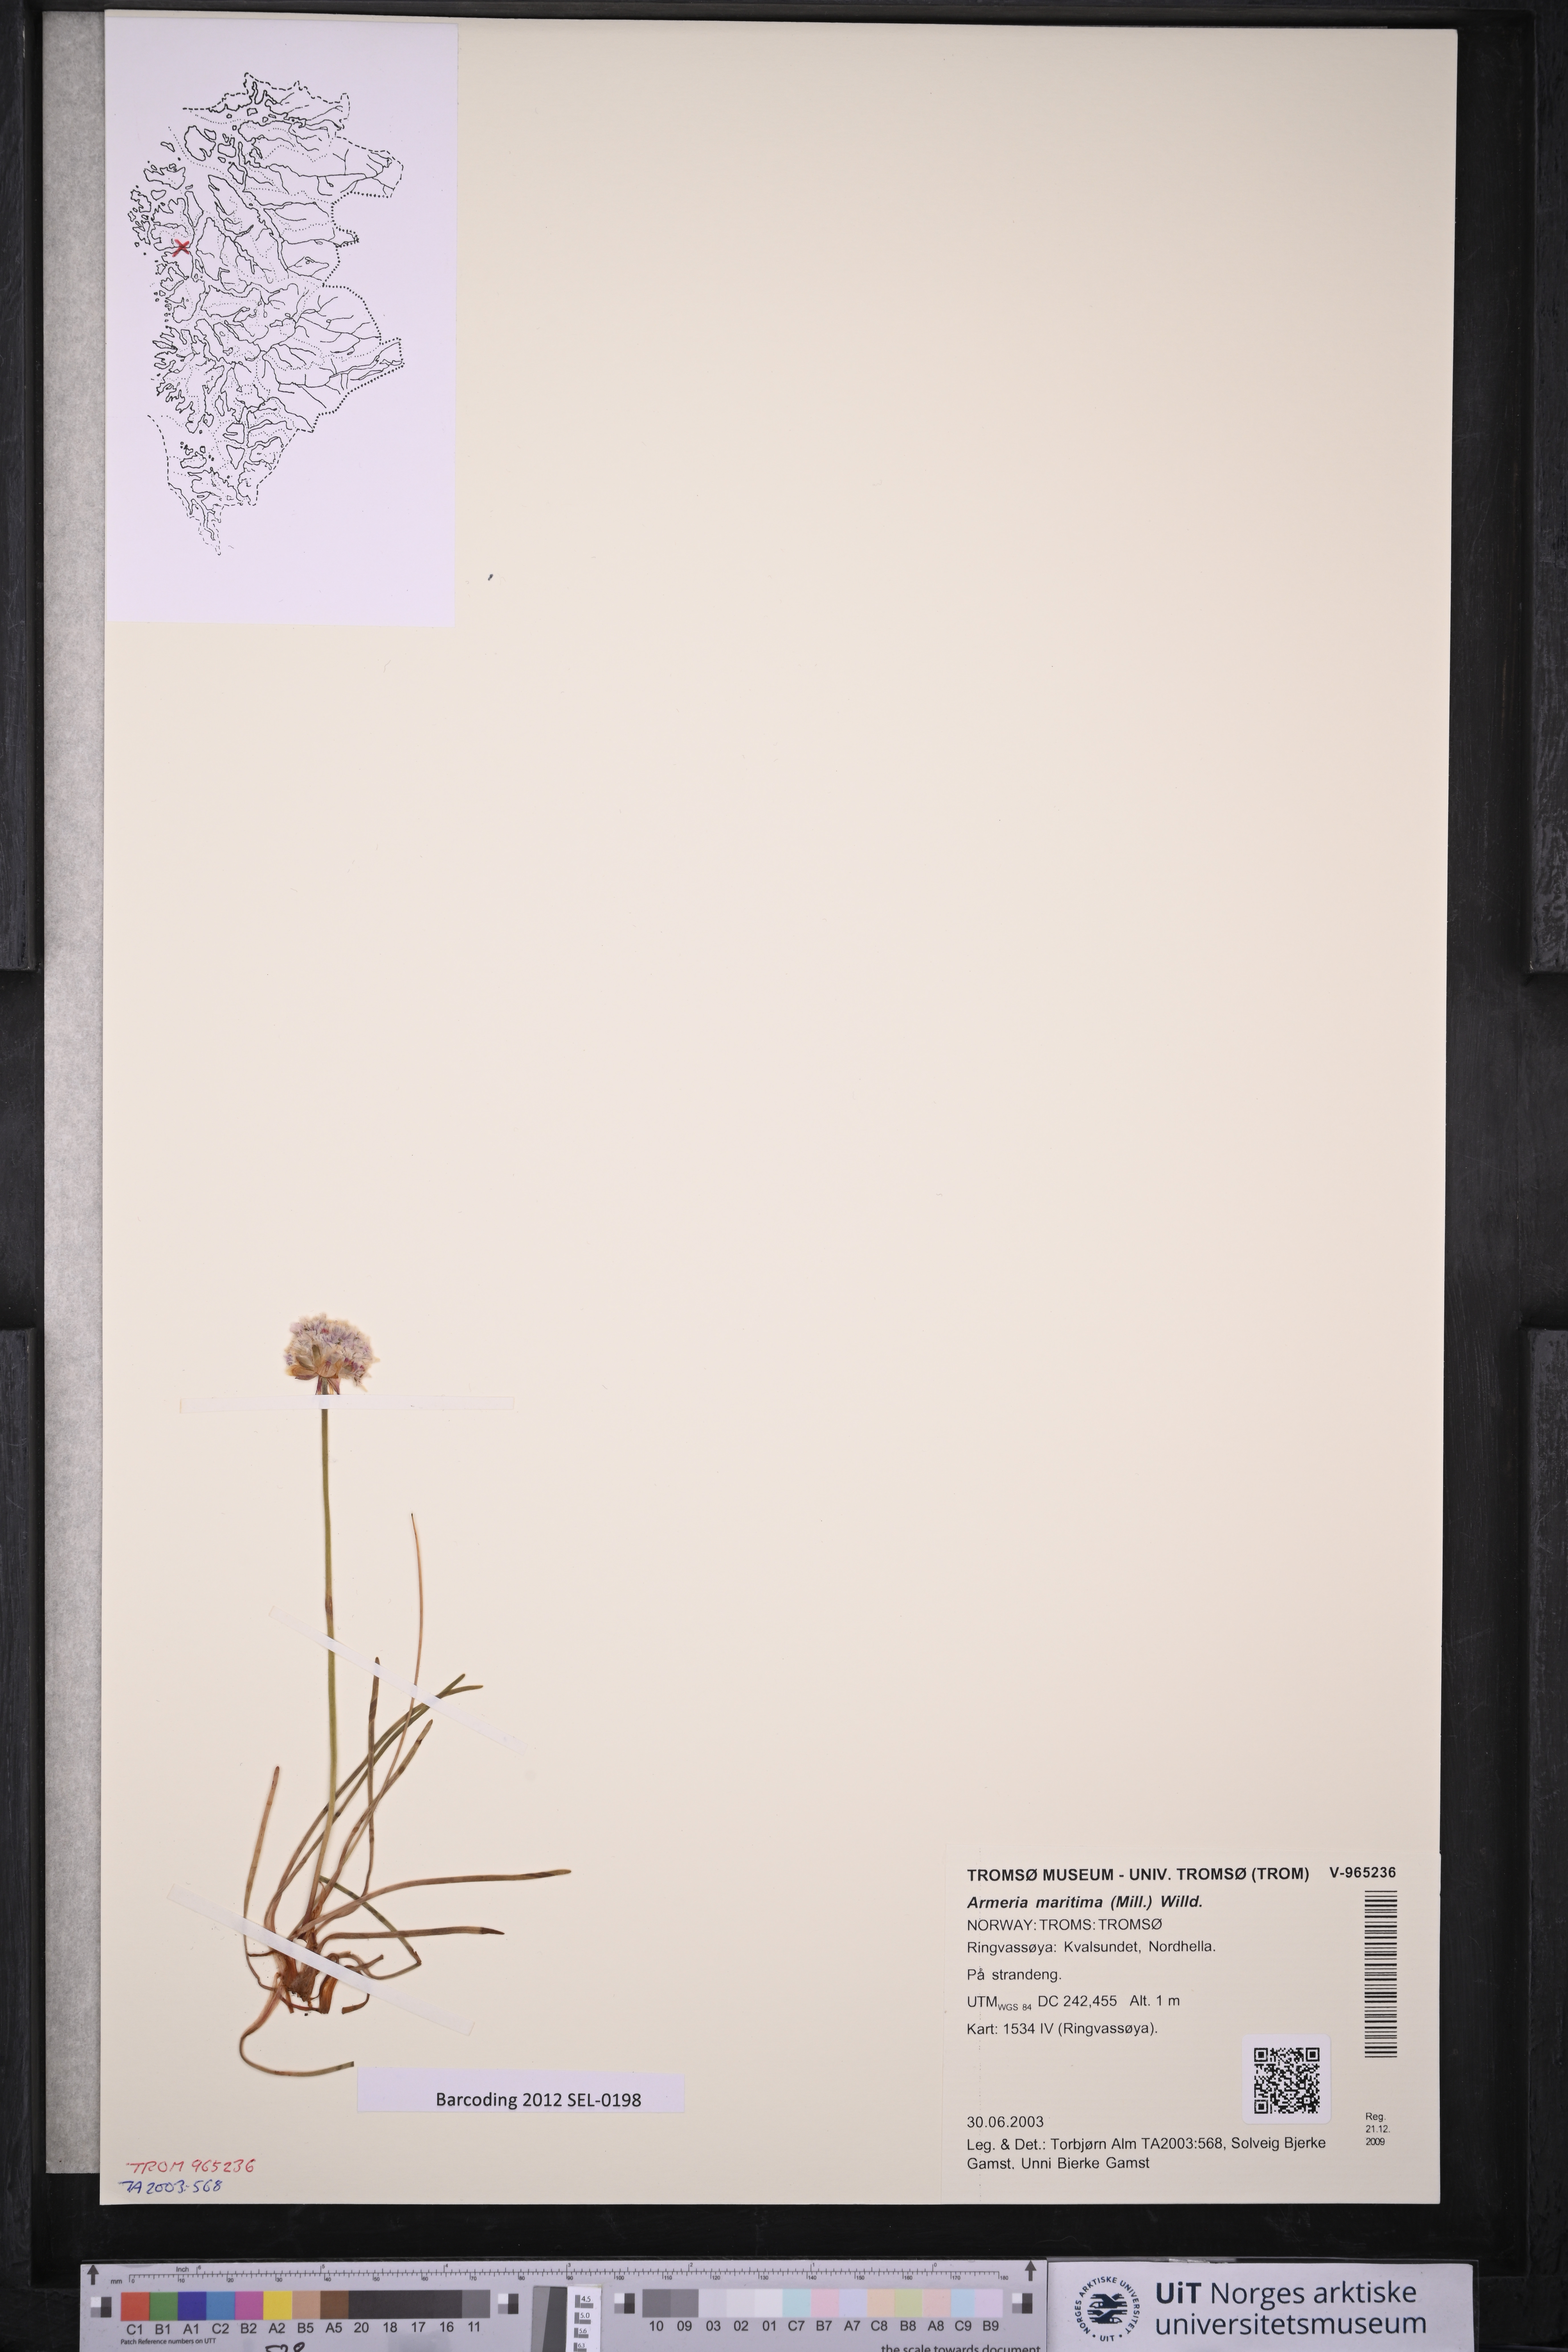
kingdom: Plantae
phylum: Tracheophyta
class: Magnoliopsida
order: Caryophyllales
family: Plumbaginaceae
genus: Armeria
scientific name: Armeria maritima
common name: Thrift
